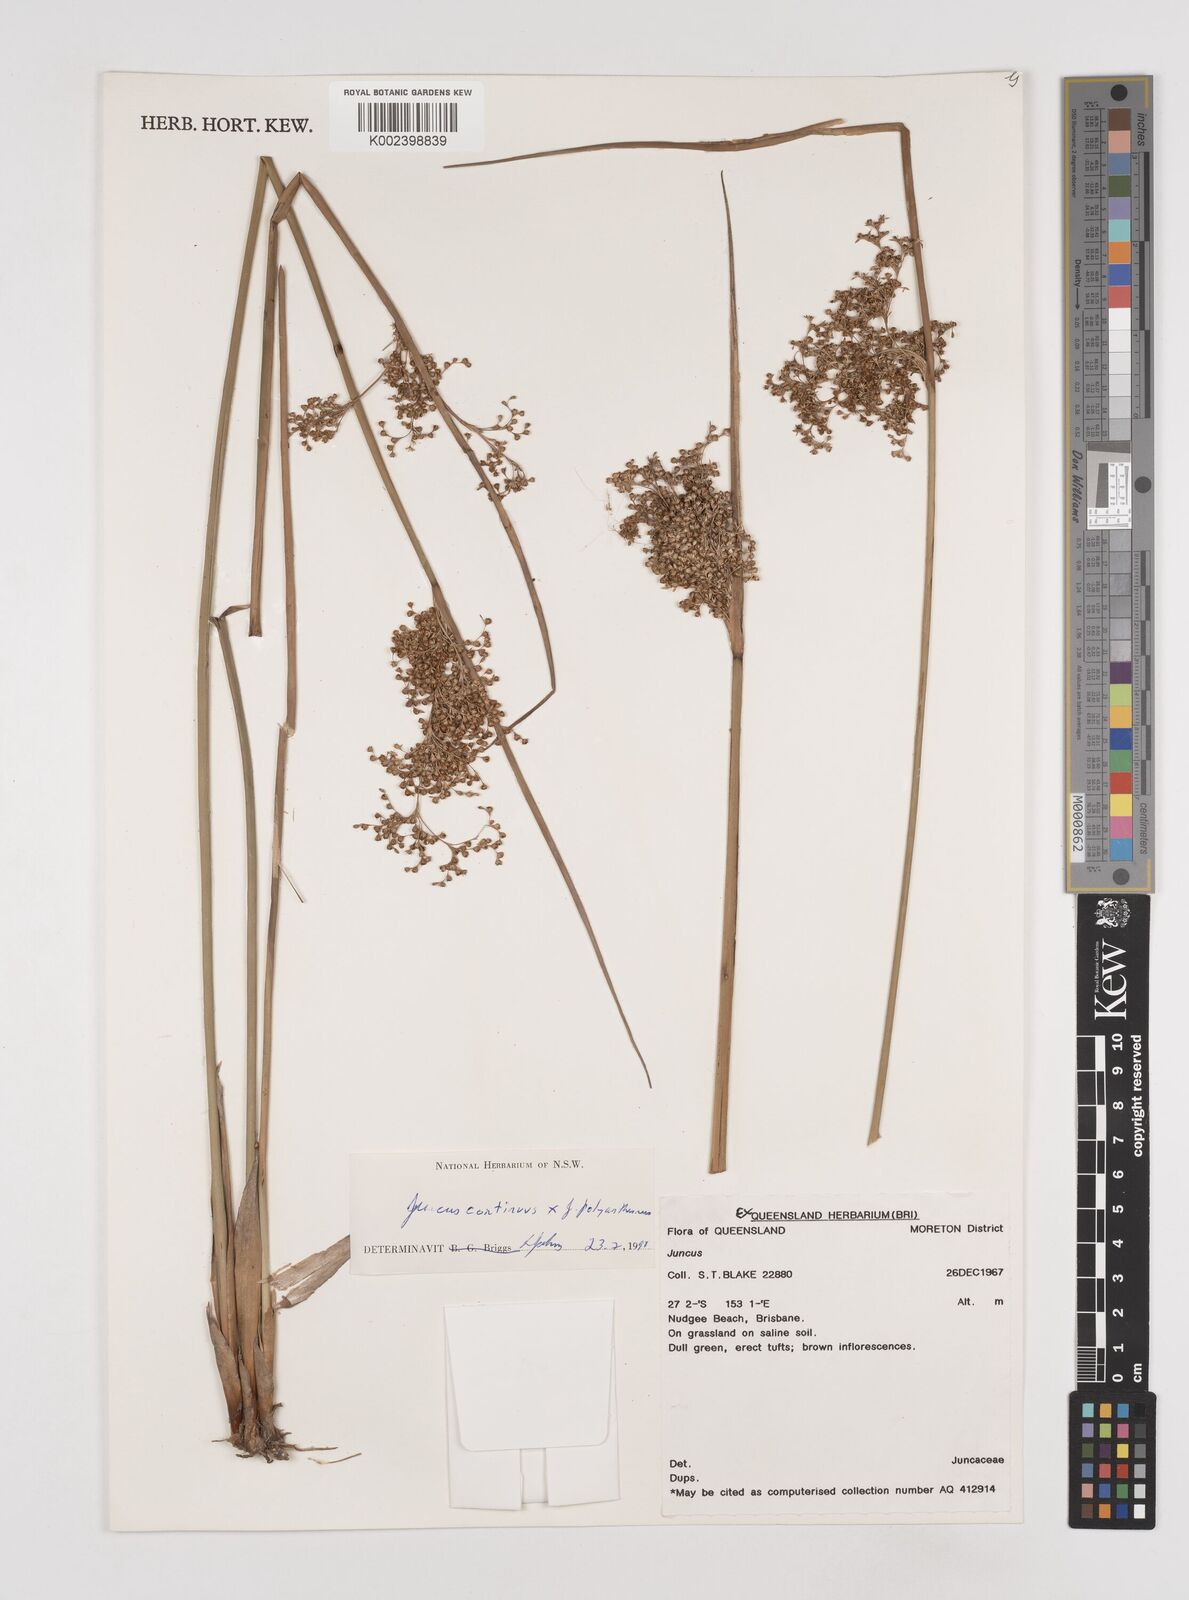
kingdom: Plantae
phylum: Tracheophyta
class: Liliopsida
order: Poales
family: Juncaceae
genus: Juncus
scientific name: Juncus continuus
